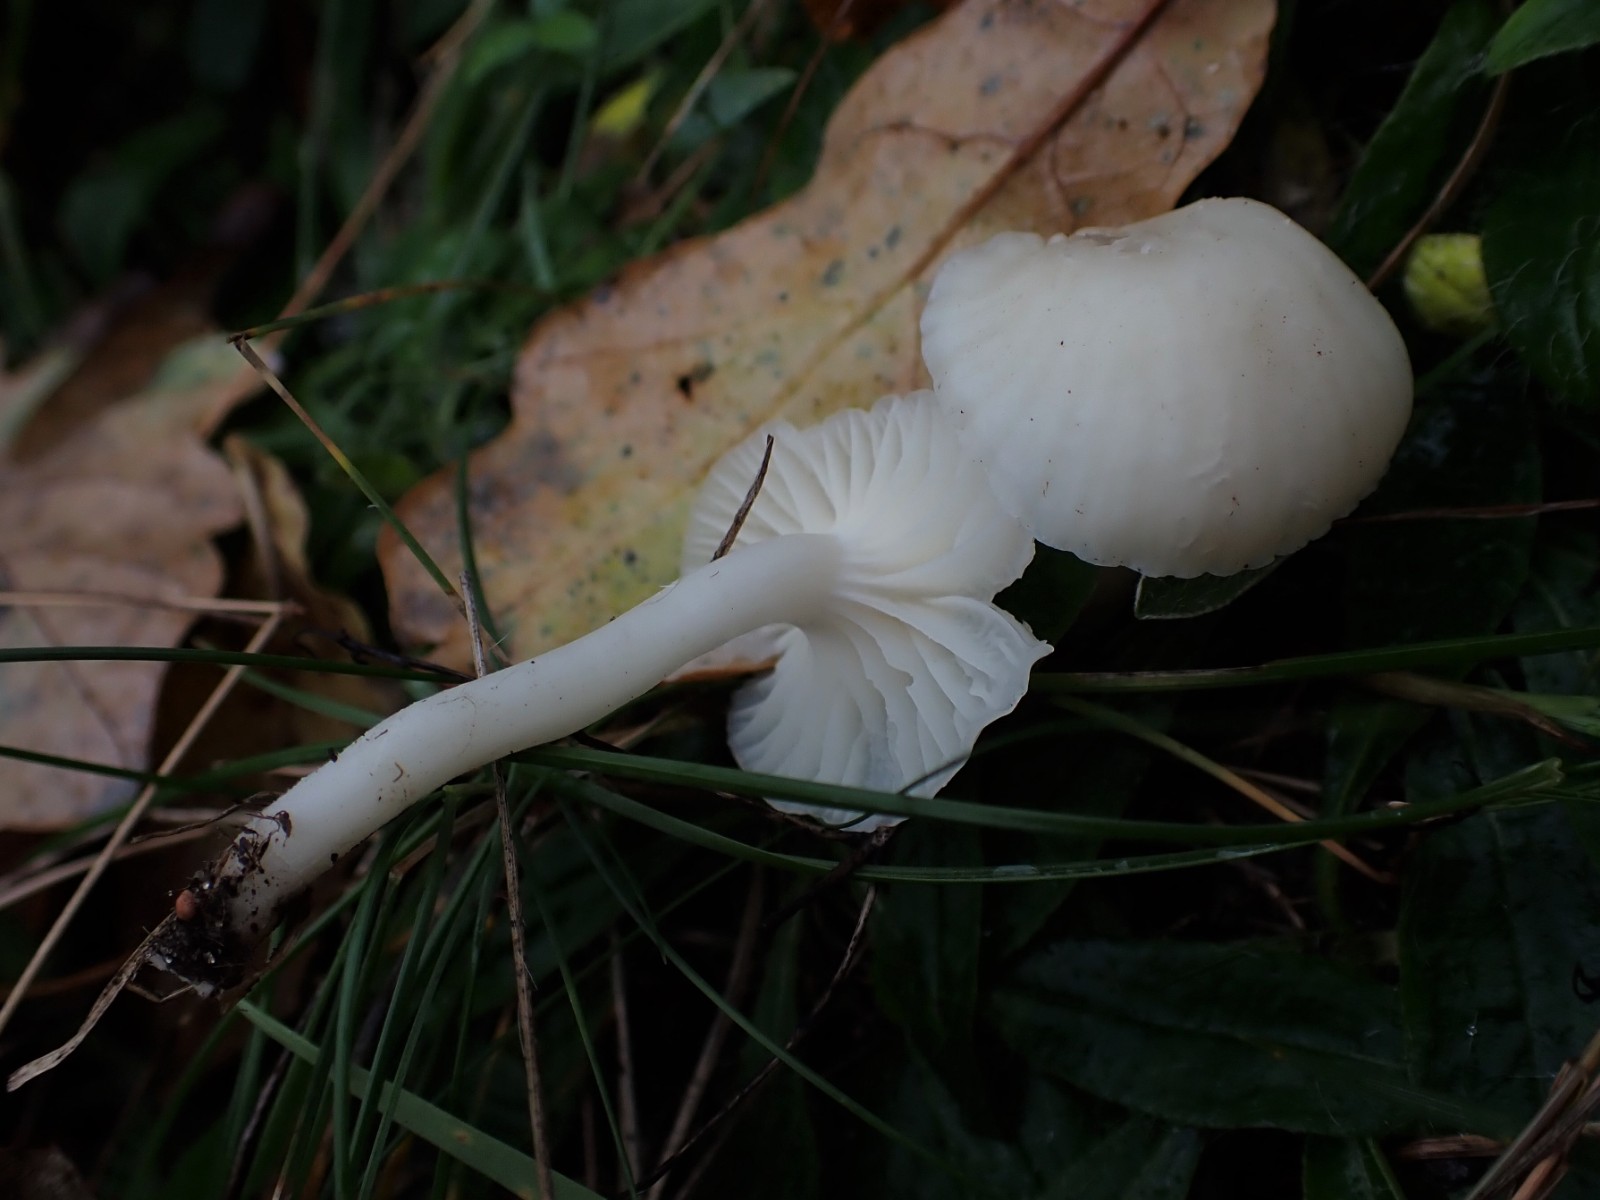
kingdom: Fungi
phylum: Basidiomycota
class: Agaricomycetes
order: Agaricales
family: Hygrophoraceae
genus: Cuphophyllus
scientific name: Cuphophyllus virgineus
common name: snehvid vokshat
